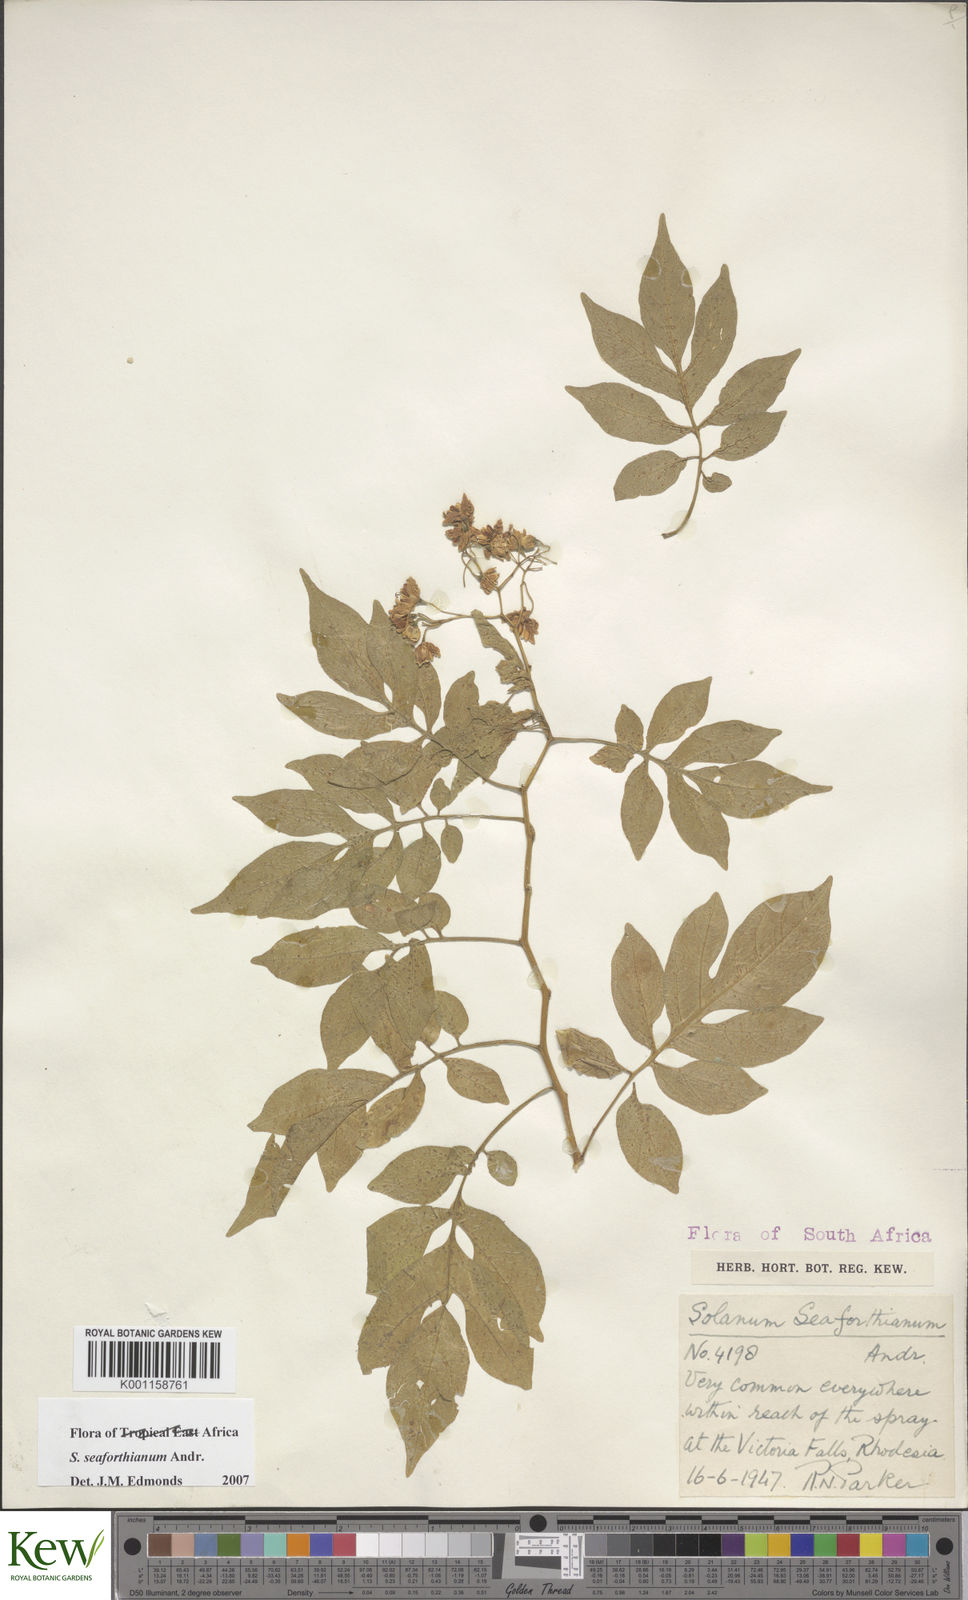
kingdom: Plantae
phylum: Tracheophyta
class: Magnoliopsida
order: Solanales
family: Solanaceae
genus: Solanum
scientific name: Solanum seaforthianum
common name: Brazilian nightshade
